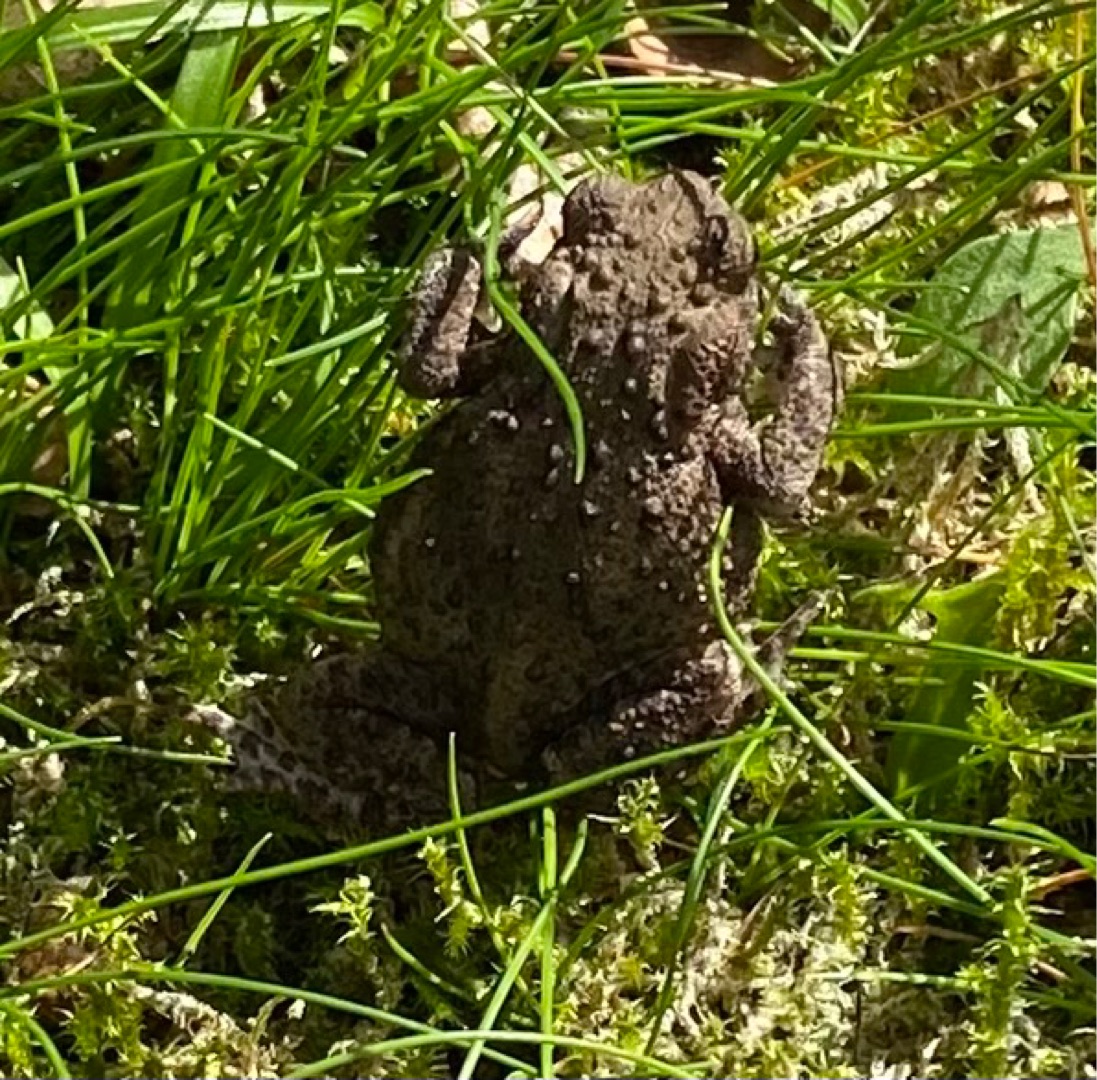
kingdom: Animalia
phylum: Chordata
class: Amphibia
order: Anura
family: Bufonidae
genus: Bufo
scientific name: Bufo bufo
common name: Skrubtudse
